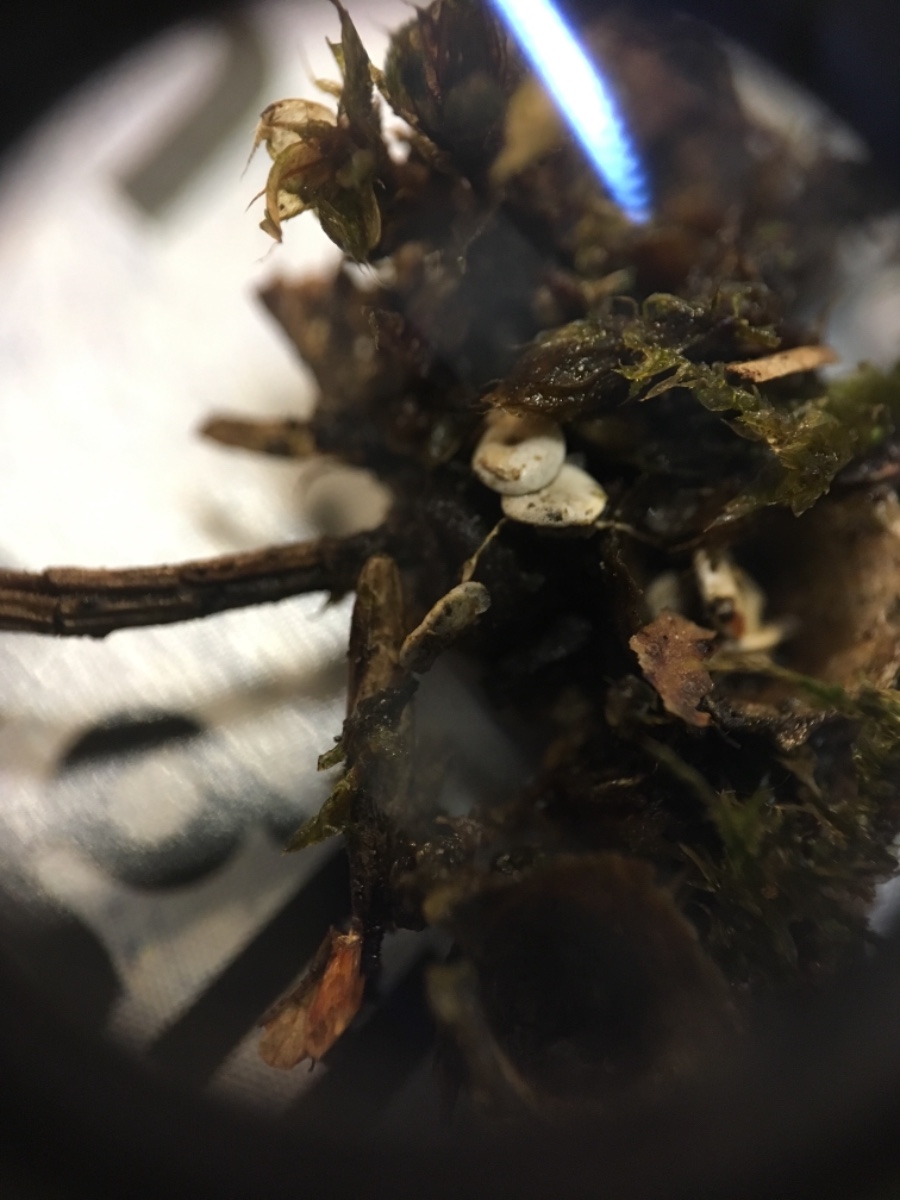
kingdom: Fungi
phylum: Basidiomycota
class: Agaricomycetes
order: Agaricales
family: Nidulariaceae
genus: Crucibulum
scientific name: Crucibulum crucibuliforme
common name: krukkesvamp
